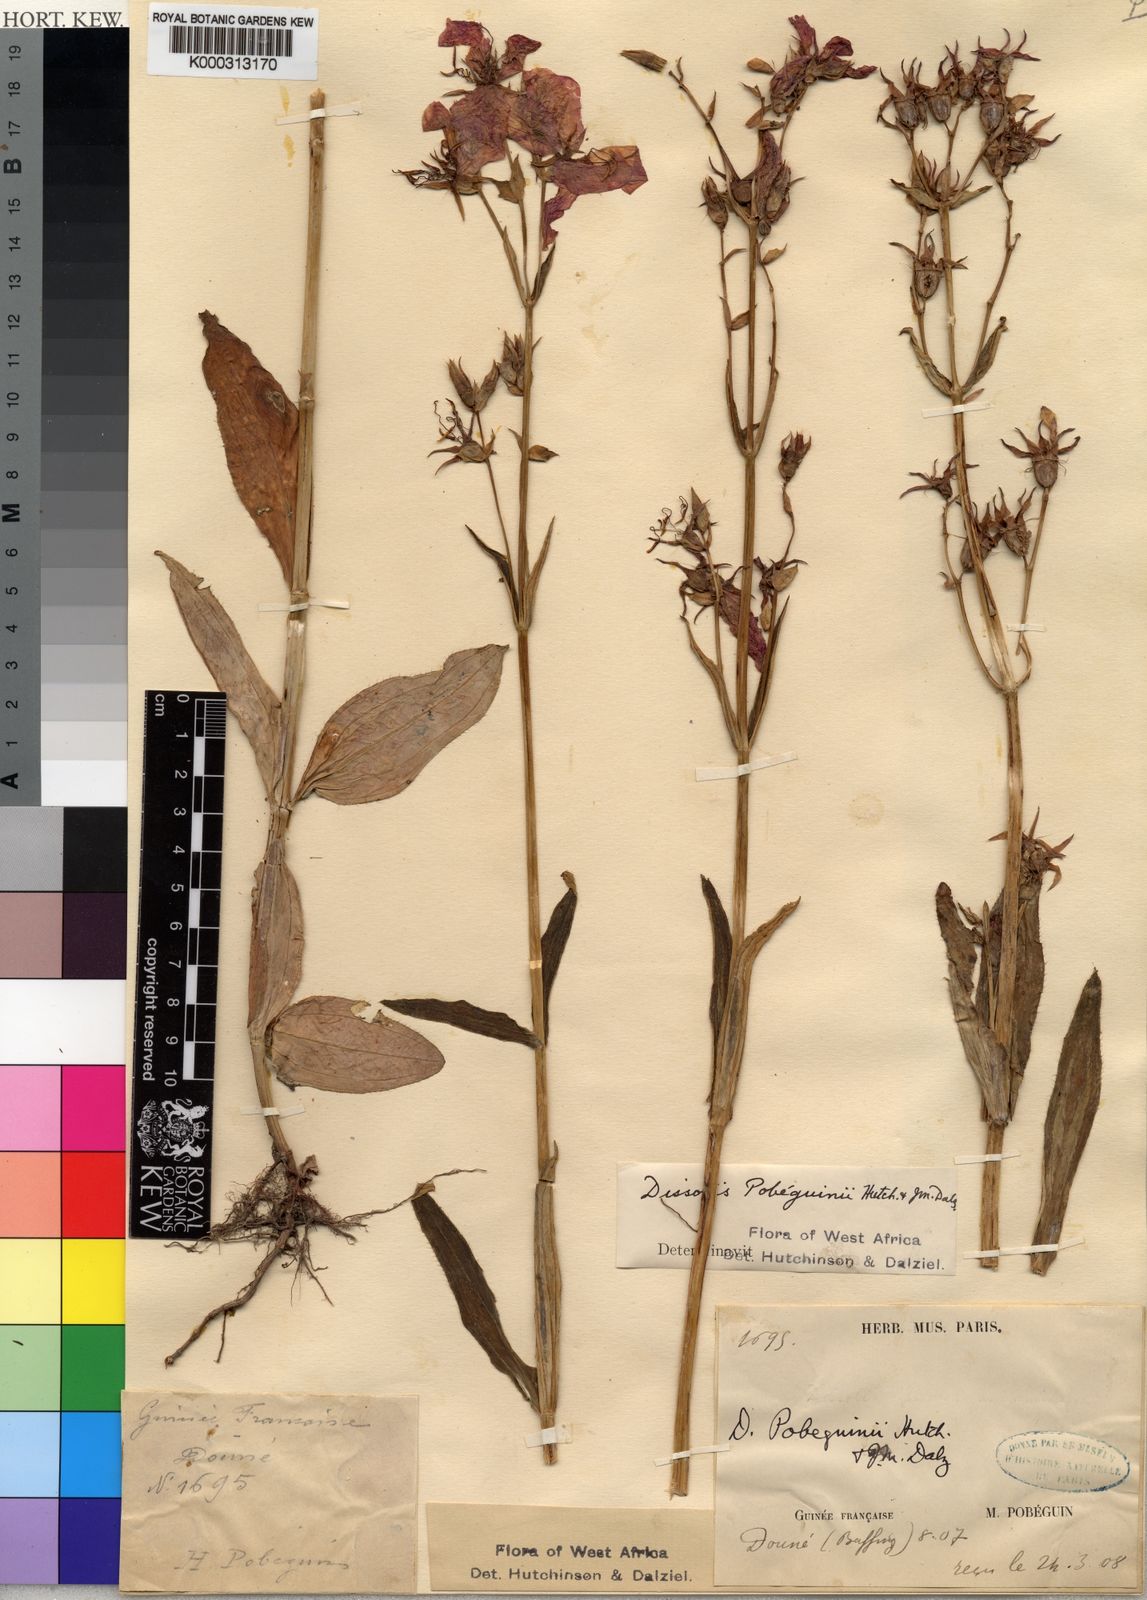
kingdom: Plantae
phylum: Tracheophyta
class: Magnoliopsida
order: Myrtales
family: Melastomataceae
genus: Anaheterotis
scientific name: Anaheterotis pobeguinii
